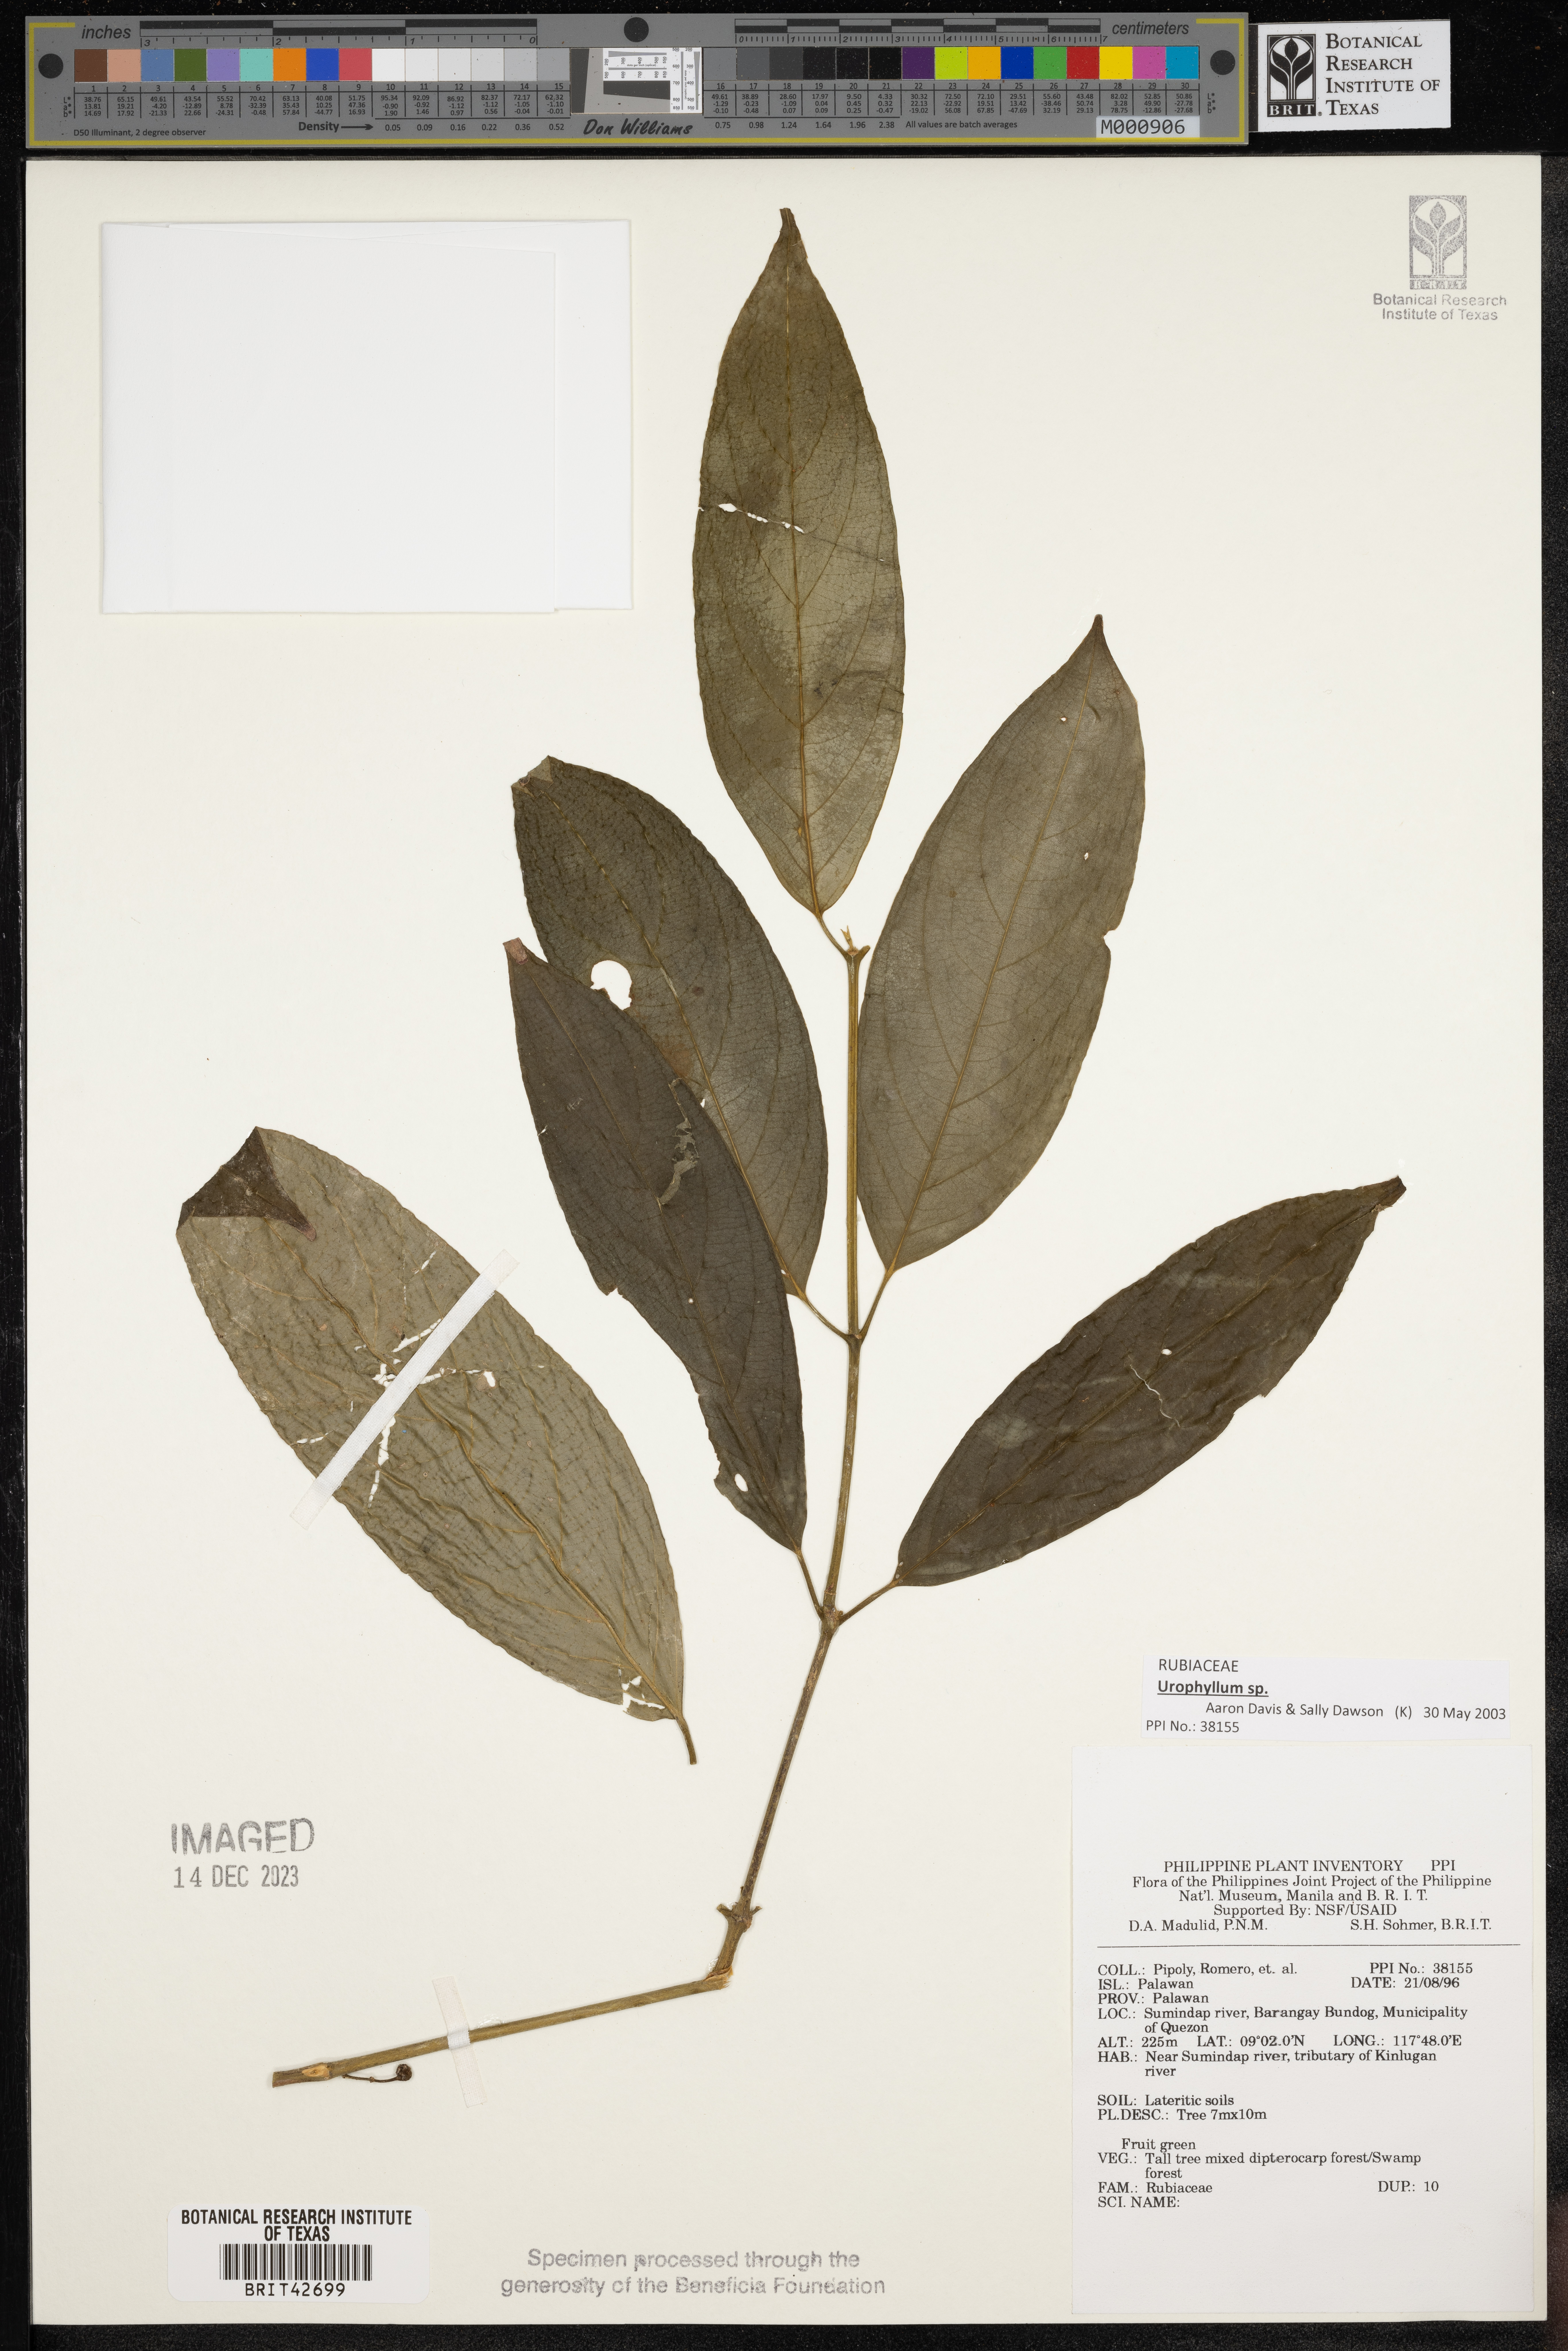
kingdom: Plantae
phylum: Tracheophyta
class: Magnoliopsida
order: Gentianales
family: Rubiaceae
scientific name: Rubiaceae
